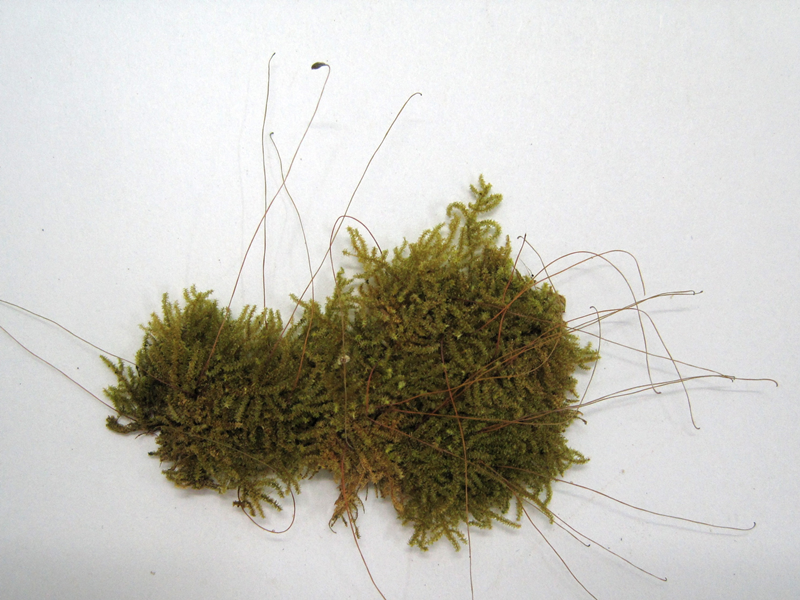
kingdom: Plantae
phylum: Bryophyta
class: Bryopsida
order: Hypnales
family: Symphyodontaceae
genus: Chaetomitriopsis
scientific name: Chaetomitriopsis glaucocarpos
